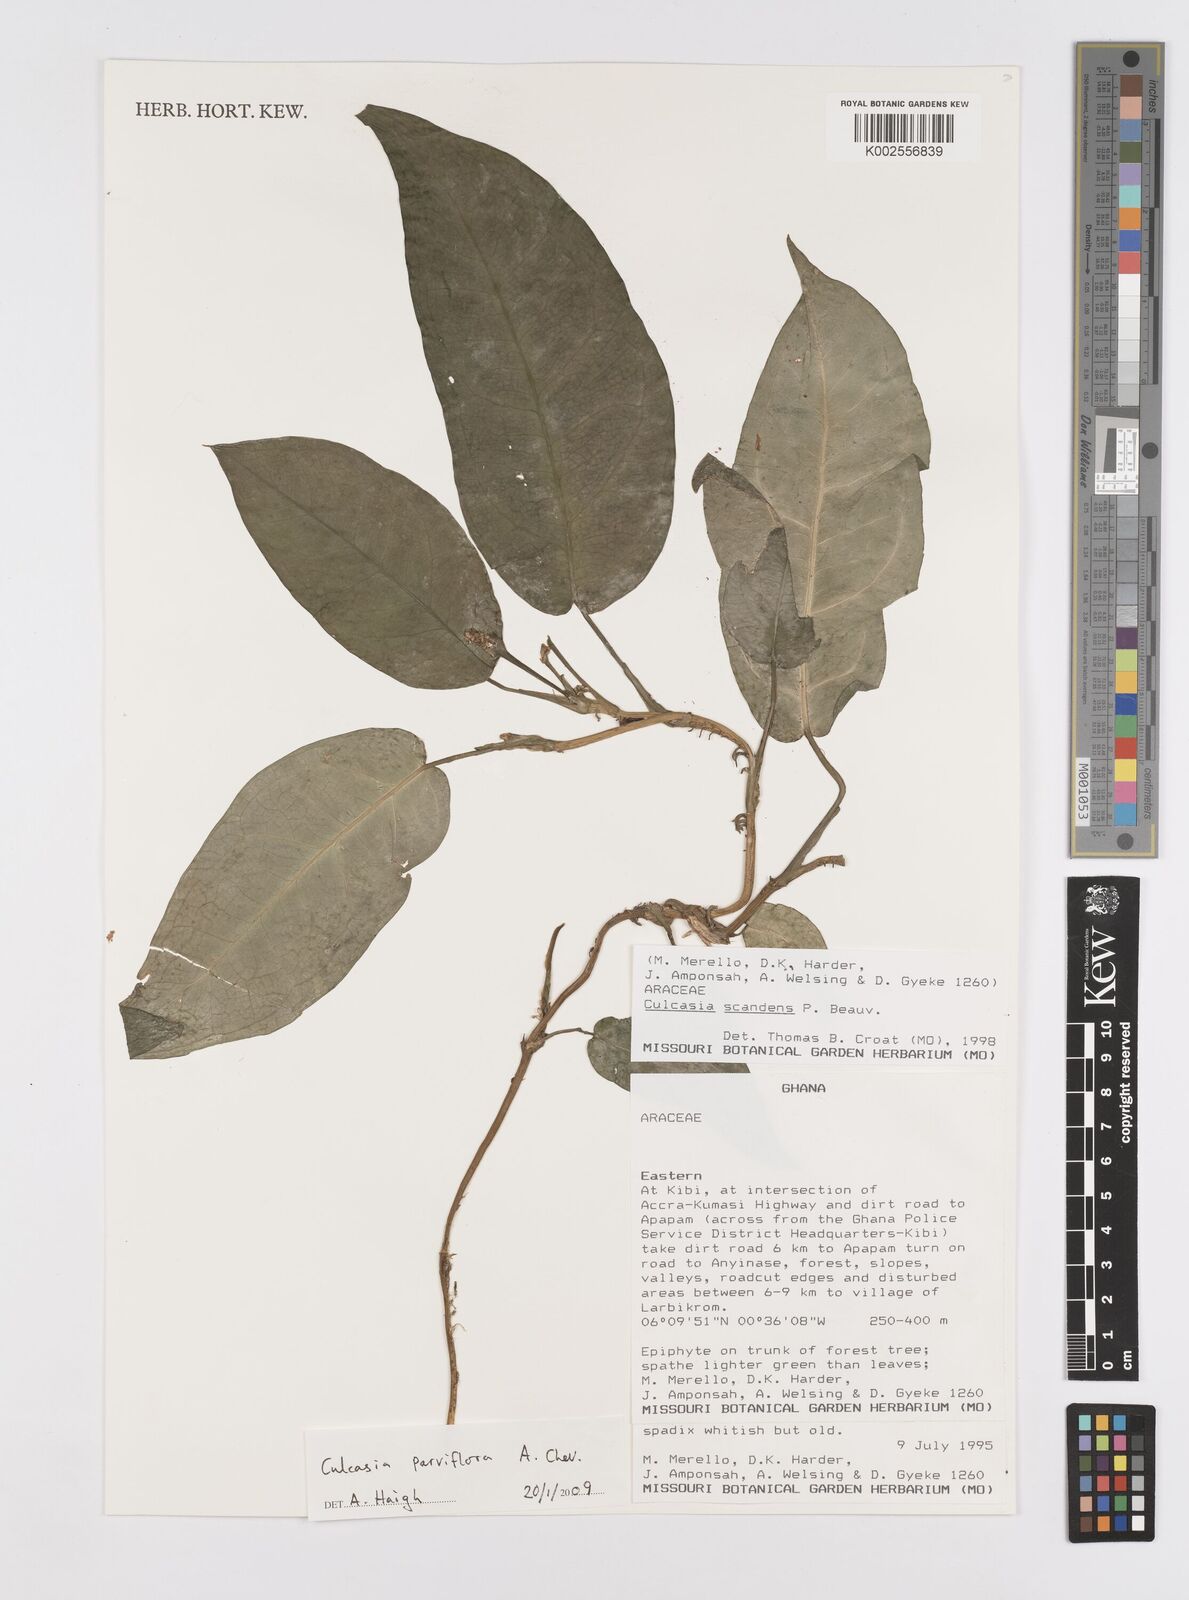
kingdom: Plantae
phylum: Tracheophyta
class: Liliopsida
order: Alismatales
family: Araceae
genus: Culcasia
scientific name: Culcasia parviflora
